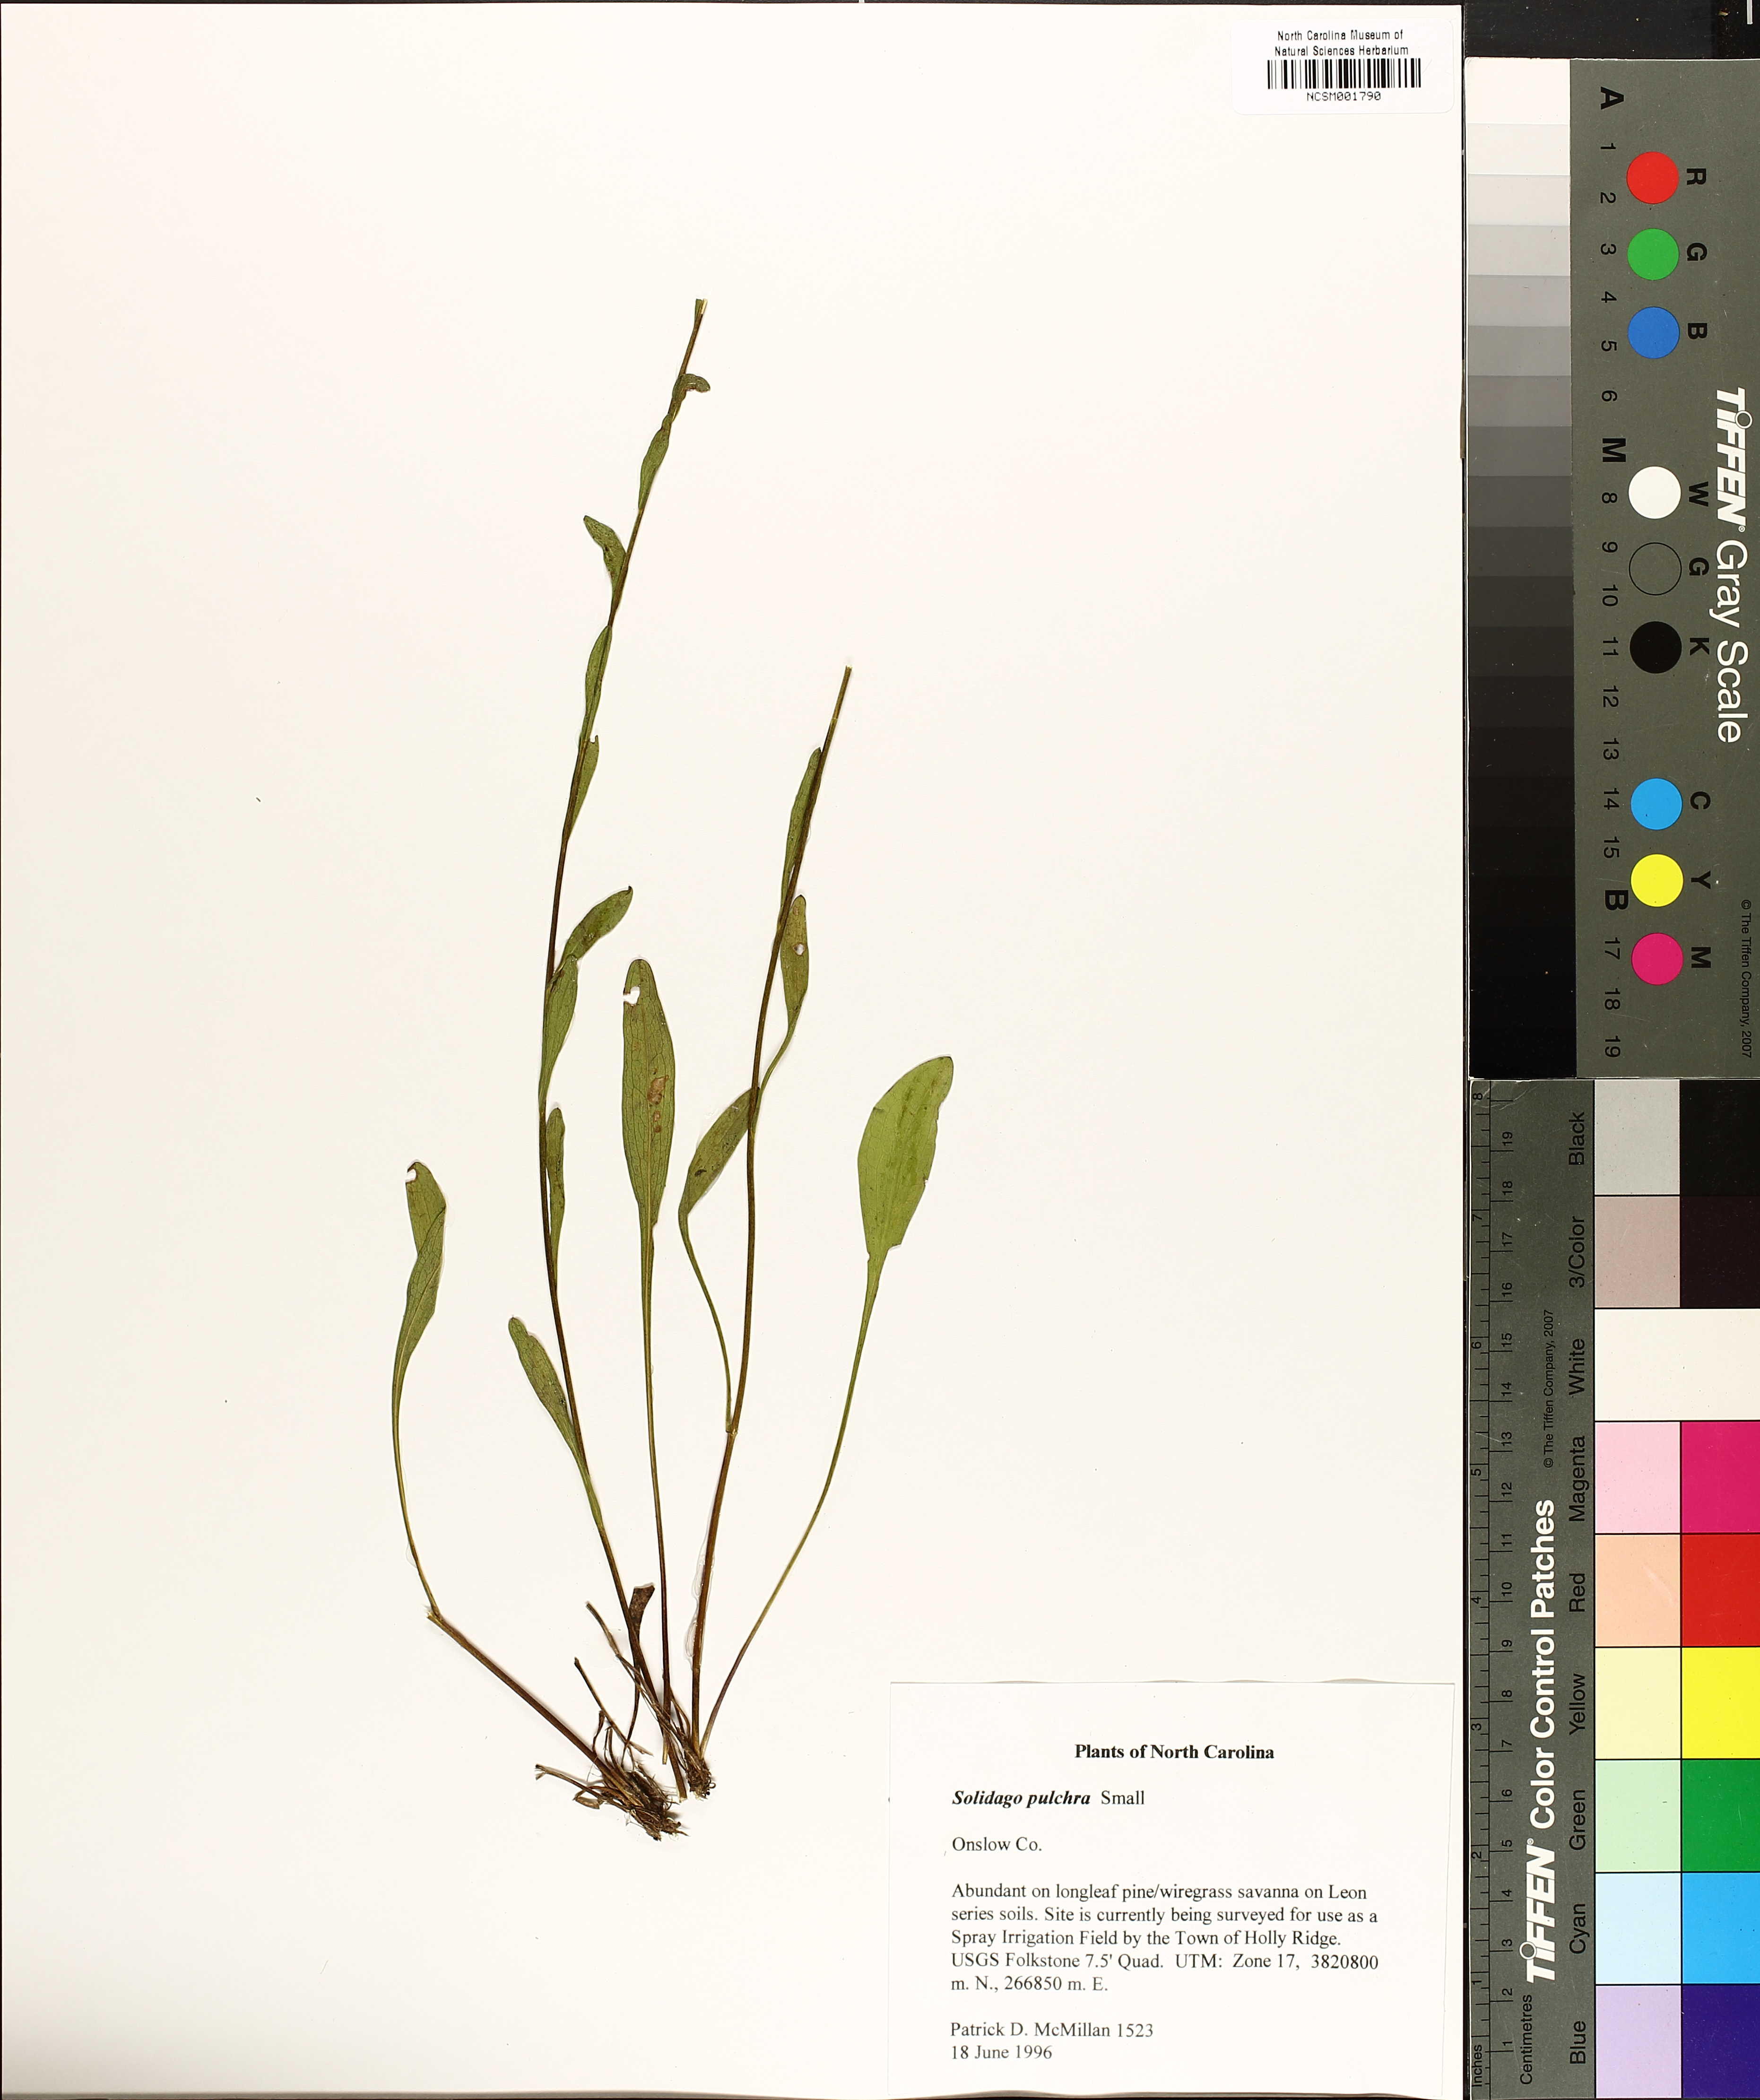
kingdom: Plantae
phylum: Tracheophyta
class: Magnoliopsida
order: Asterales
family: Asteraceae
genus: Solidago
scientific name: Solidago pulchra
